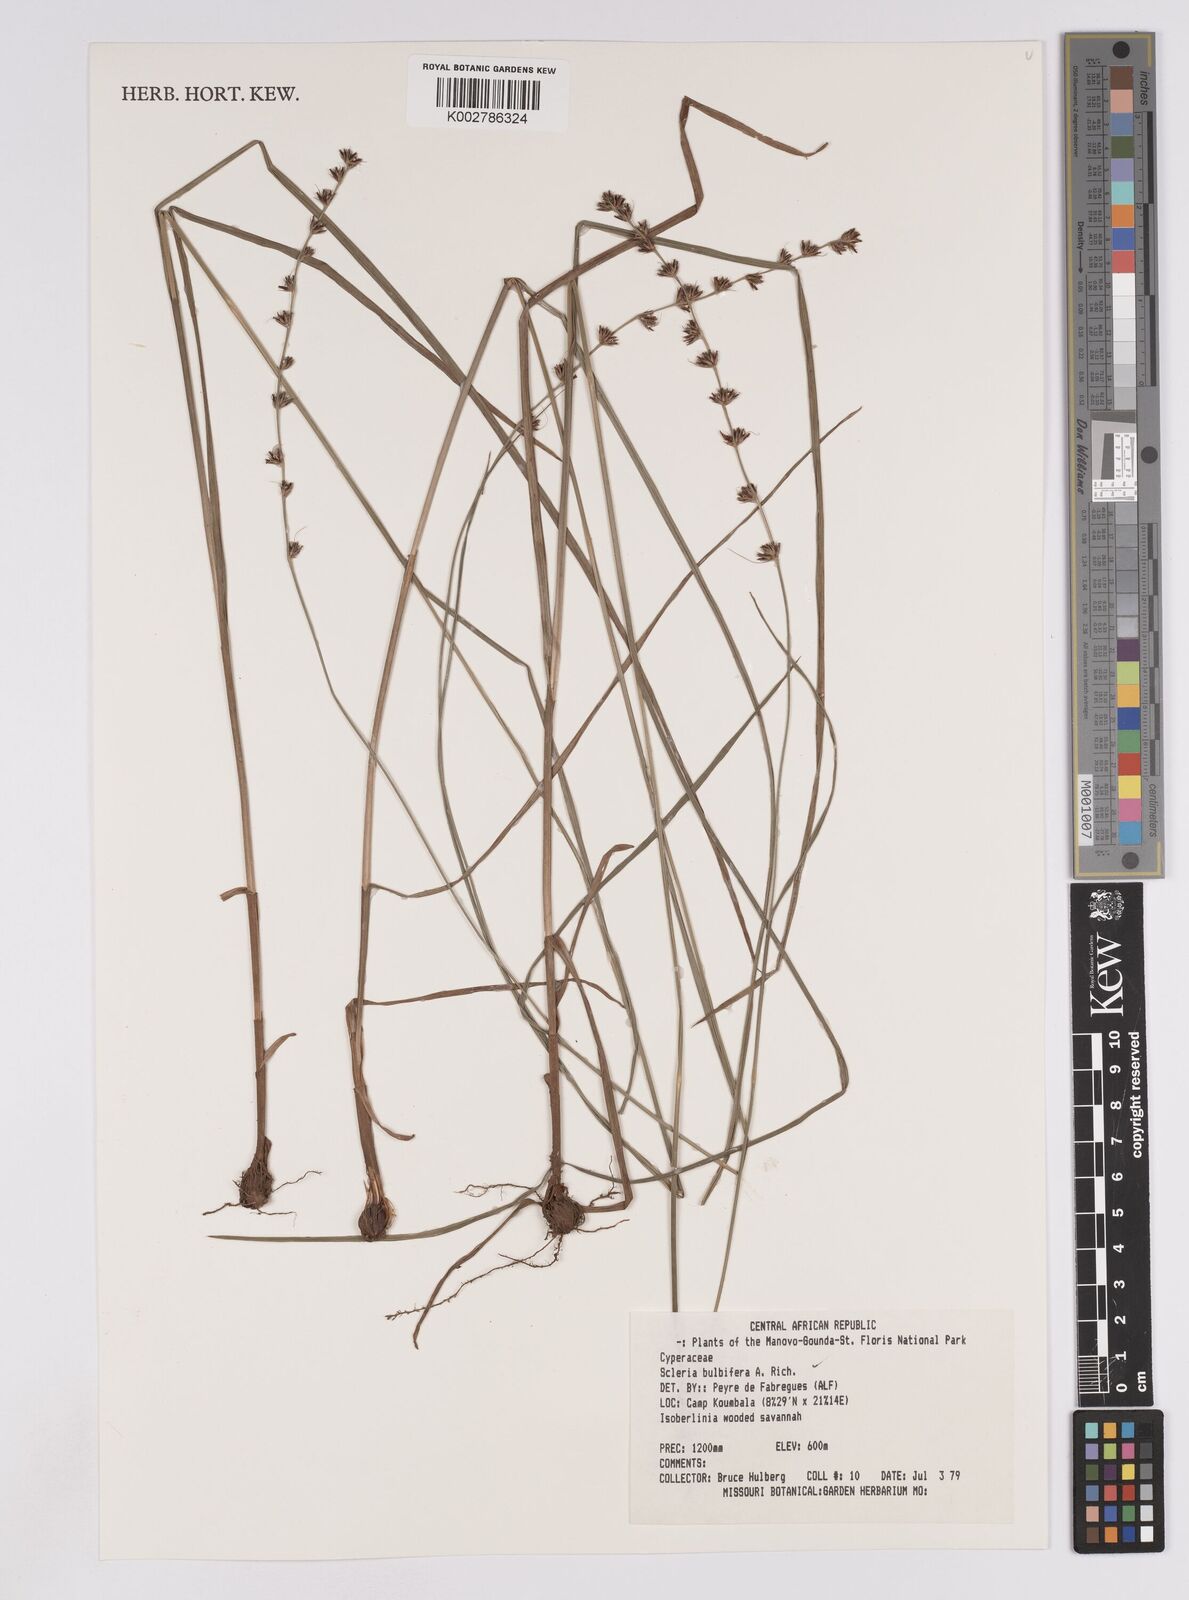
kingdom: Plantae
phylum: Tracheophyta
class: Liliopsida
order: Poales
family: Cyperaceae
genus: Scleria
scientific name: Scleria bulbifera
